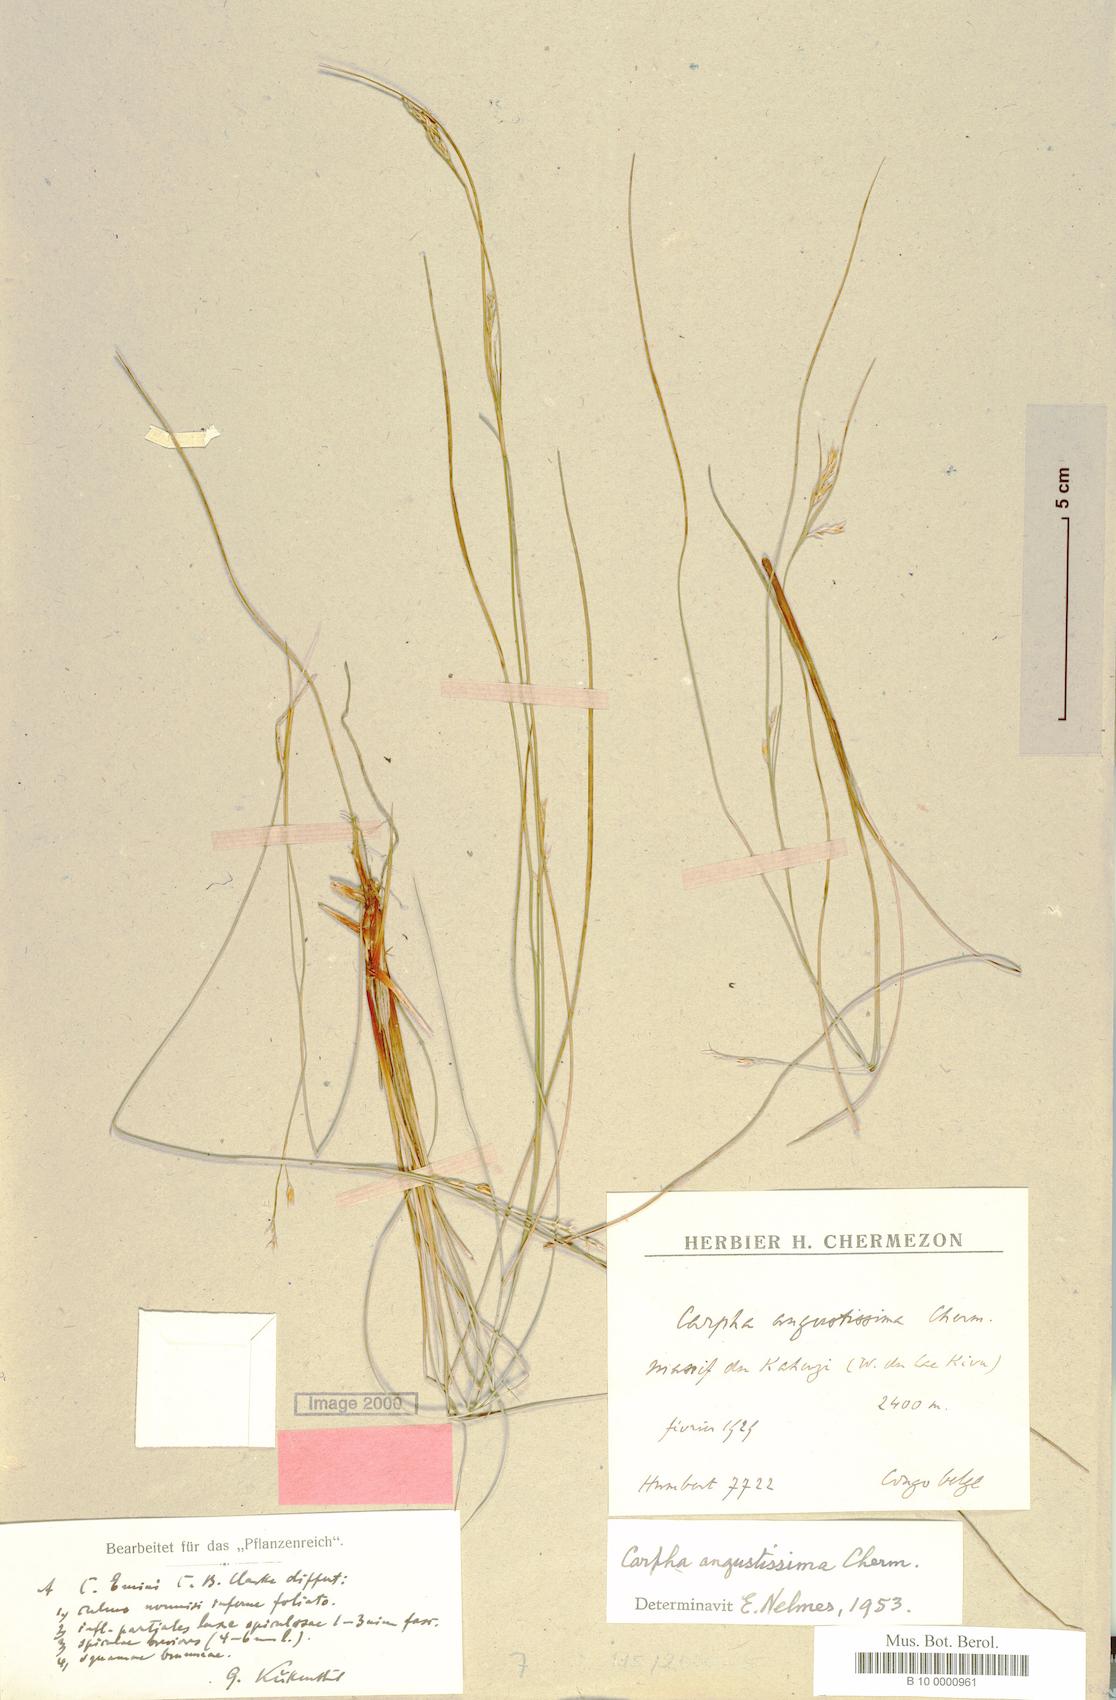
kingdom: Plantae
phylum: Tracheophyta
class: Liliopsida
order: Poales
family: Cyperaceae
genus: Carpha
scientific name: Carpha
